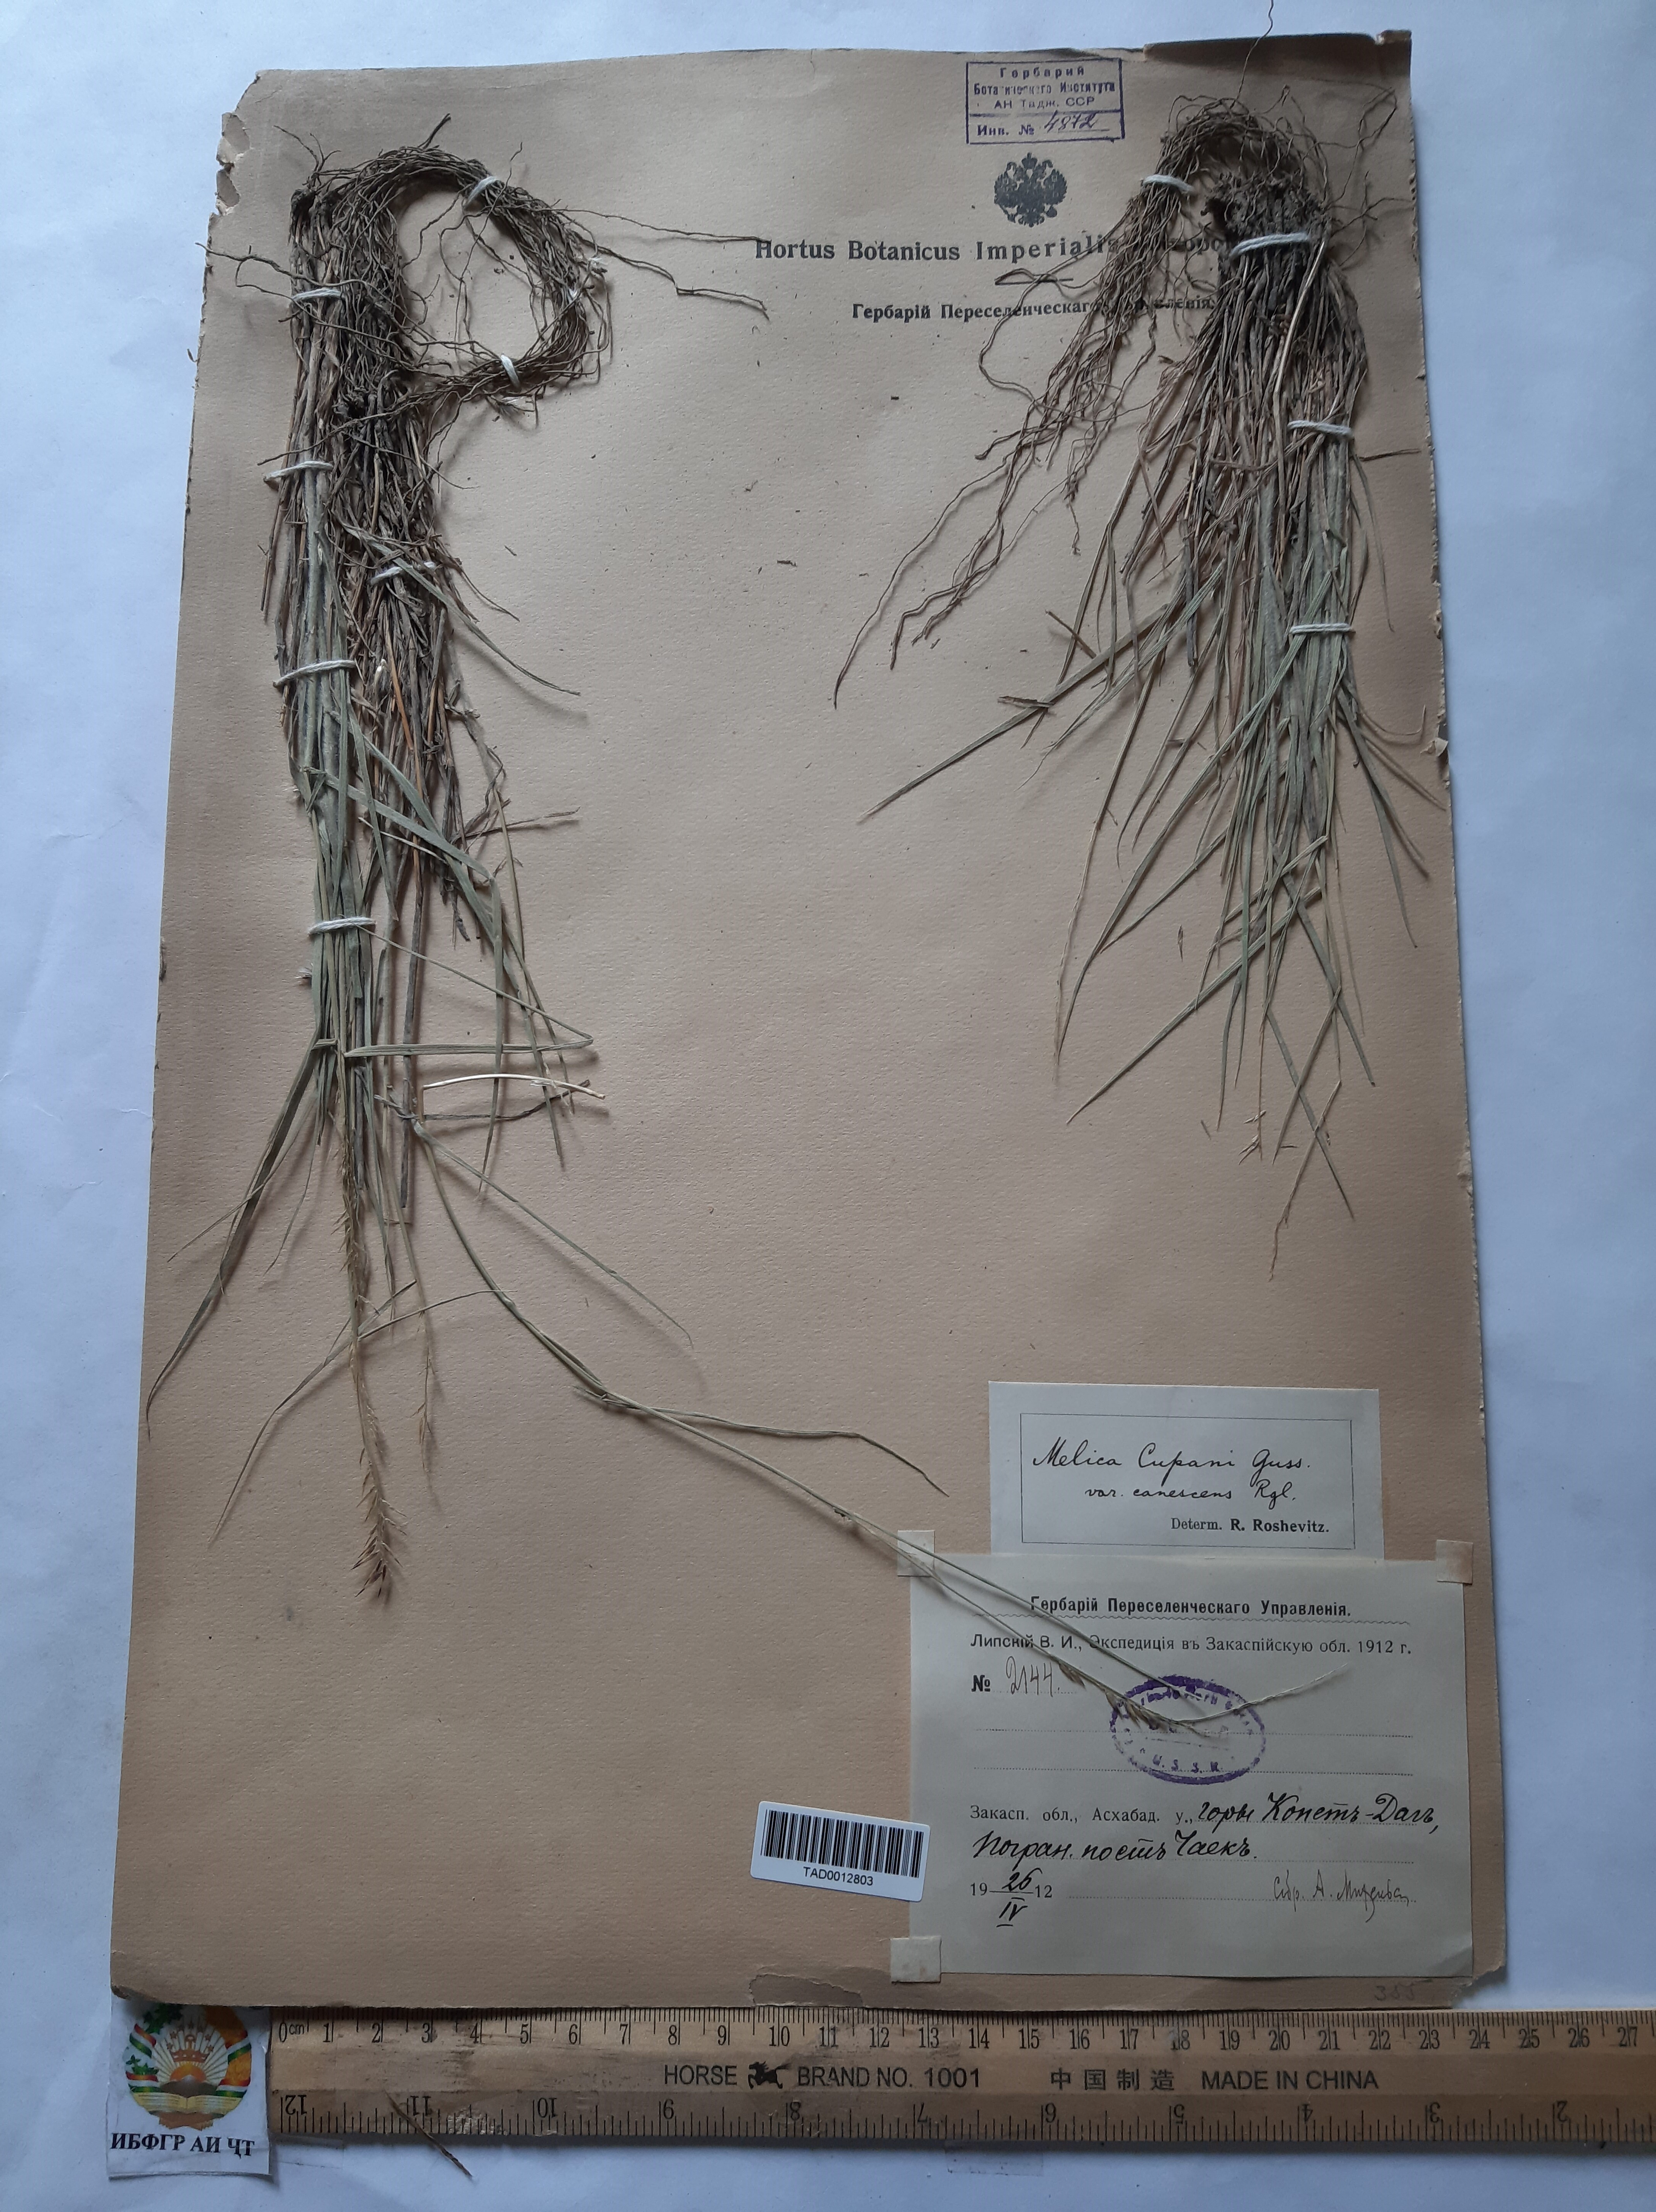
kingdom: Plantae
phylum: Tracheophyta
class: Liliopsida
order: Poales
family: Poaceae
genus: Melica
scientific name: Melica persica
